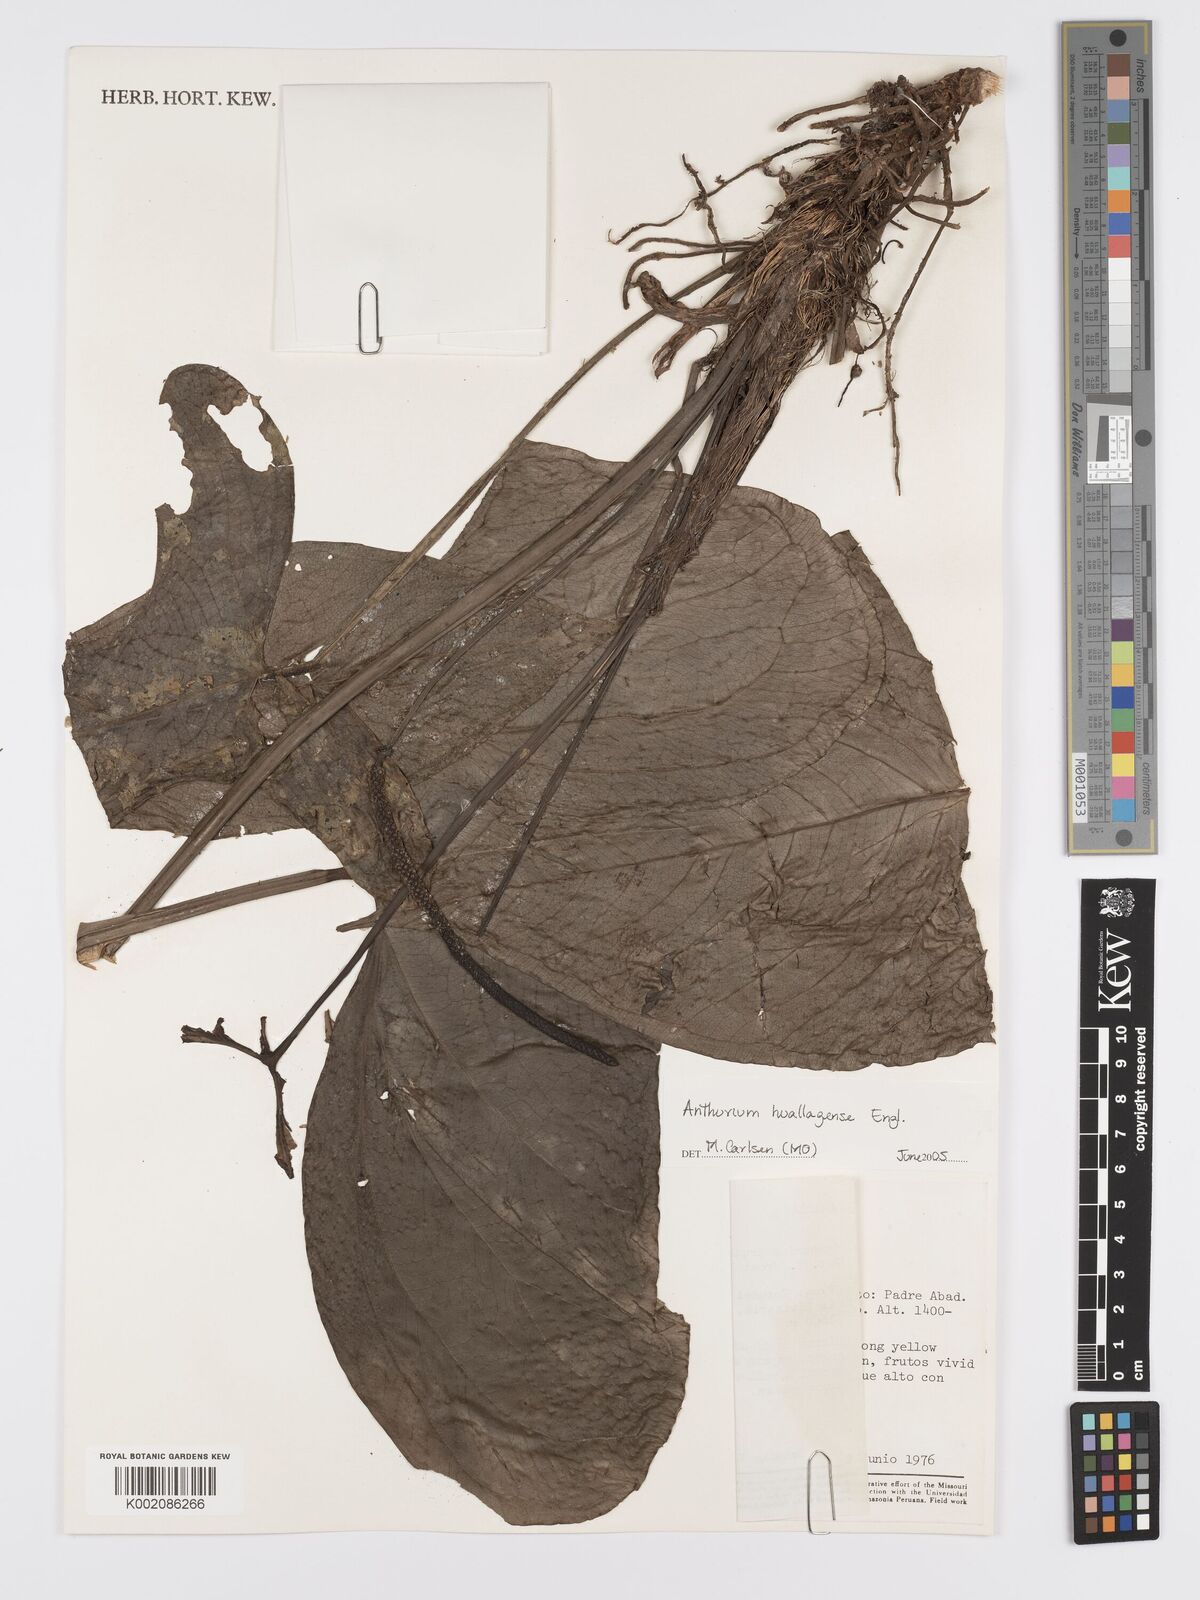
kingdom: Plantae
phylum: Tracheophyta
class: Liliopsida
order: Alismatales
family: Araceae
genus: Anthurium
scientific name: Anthurium huallagense
